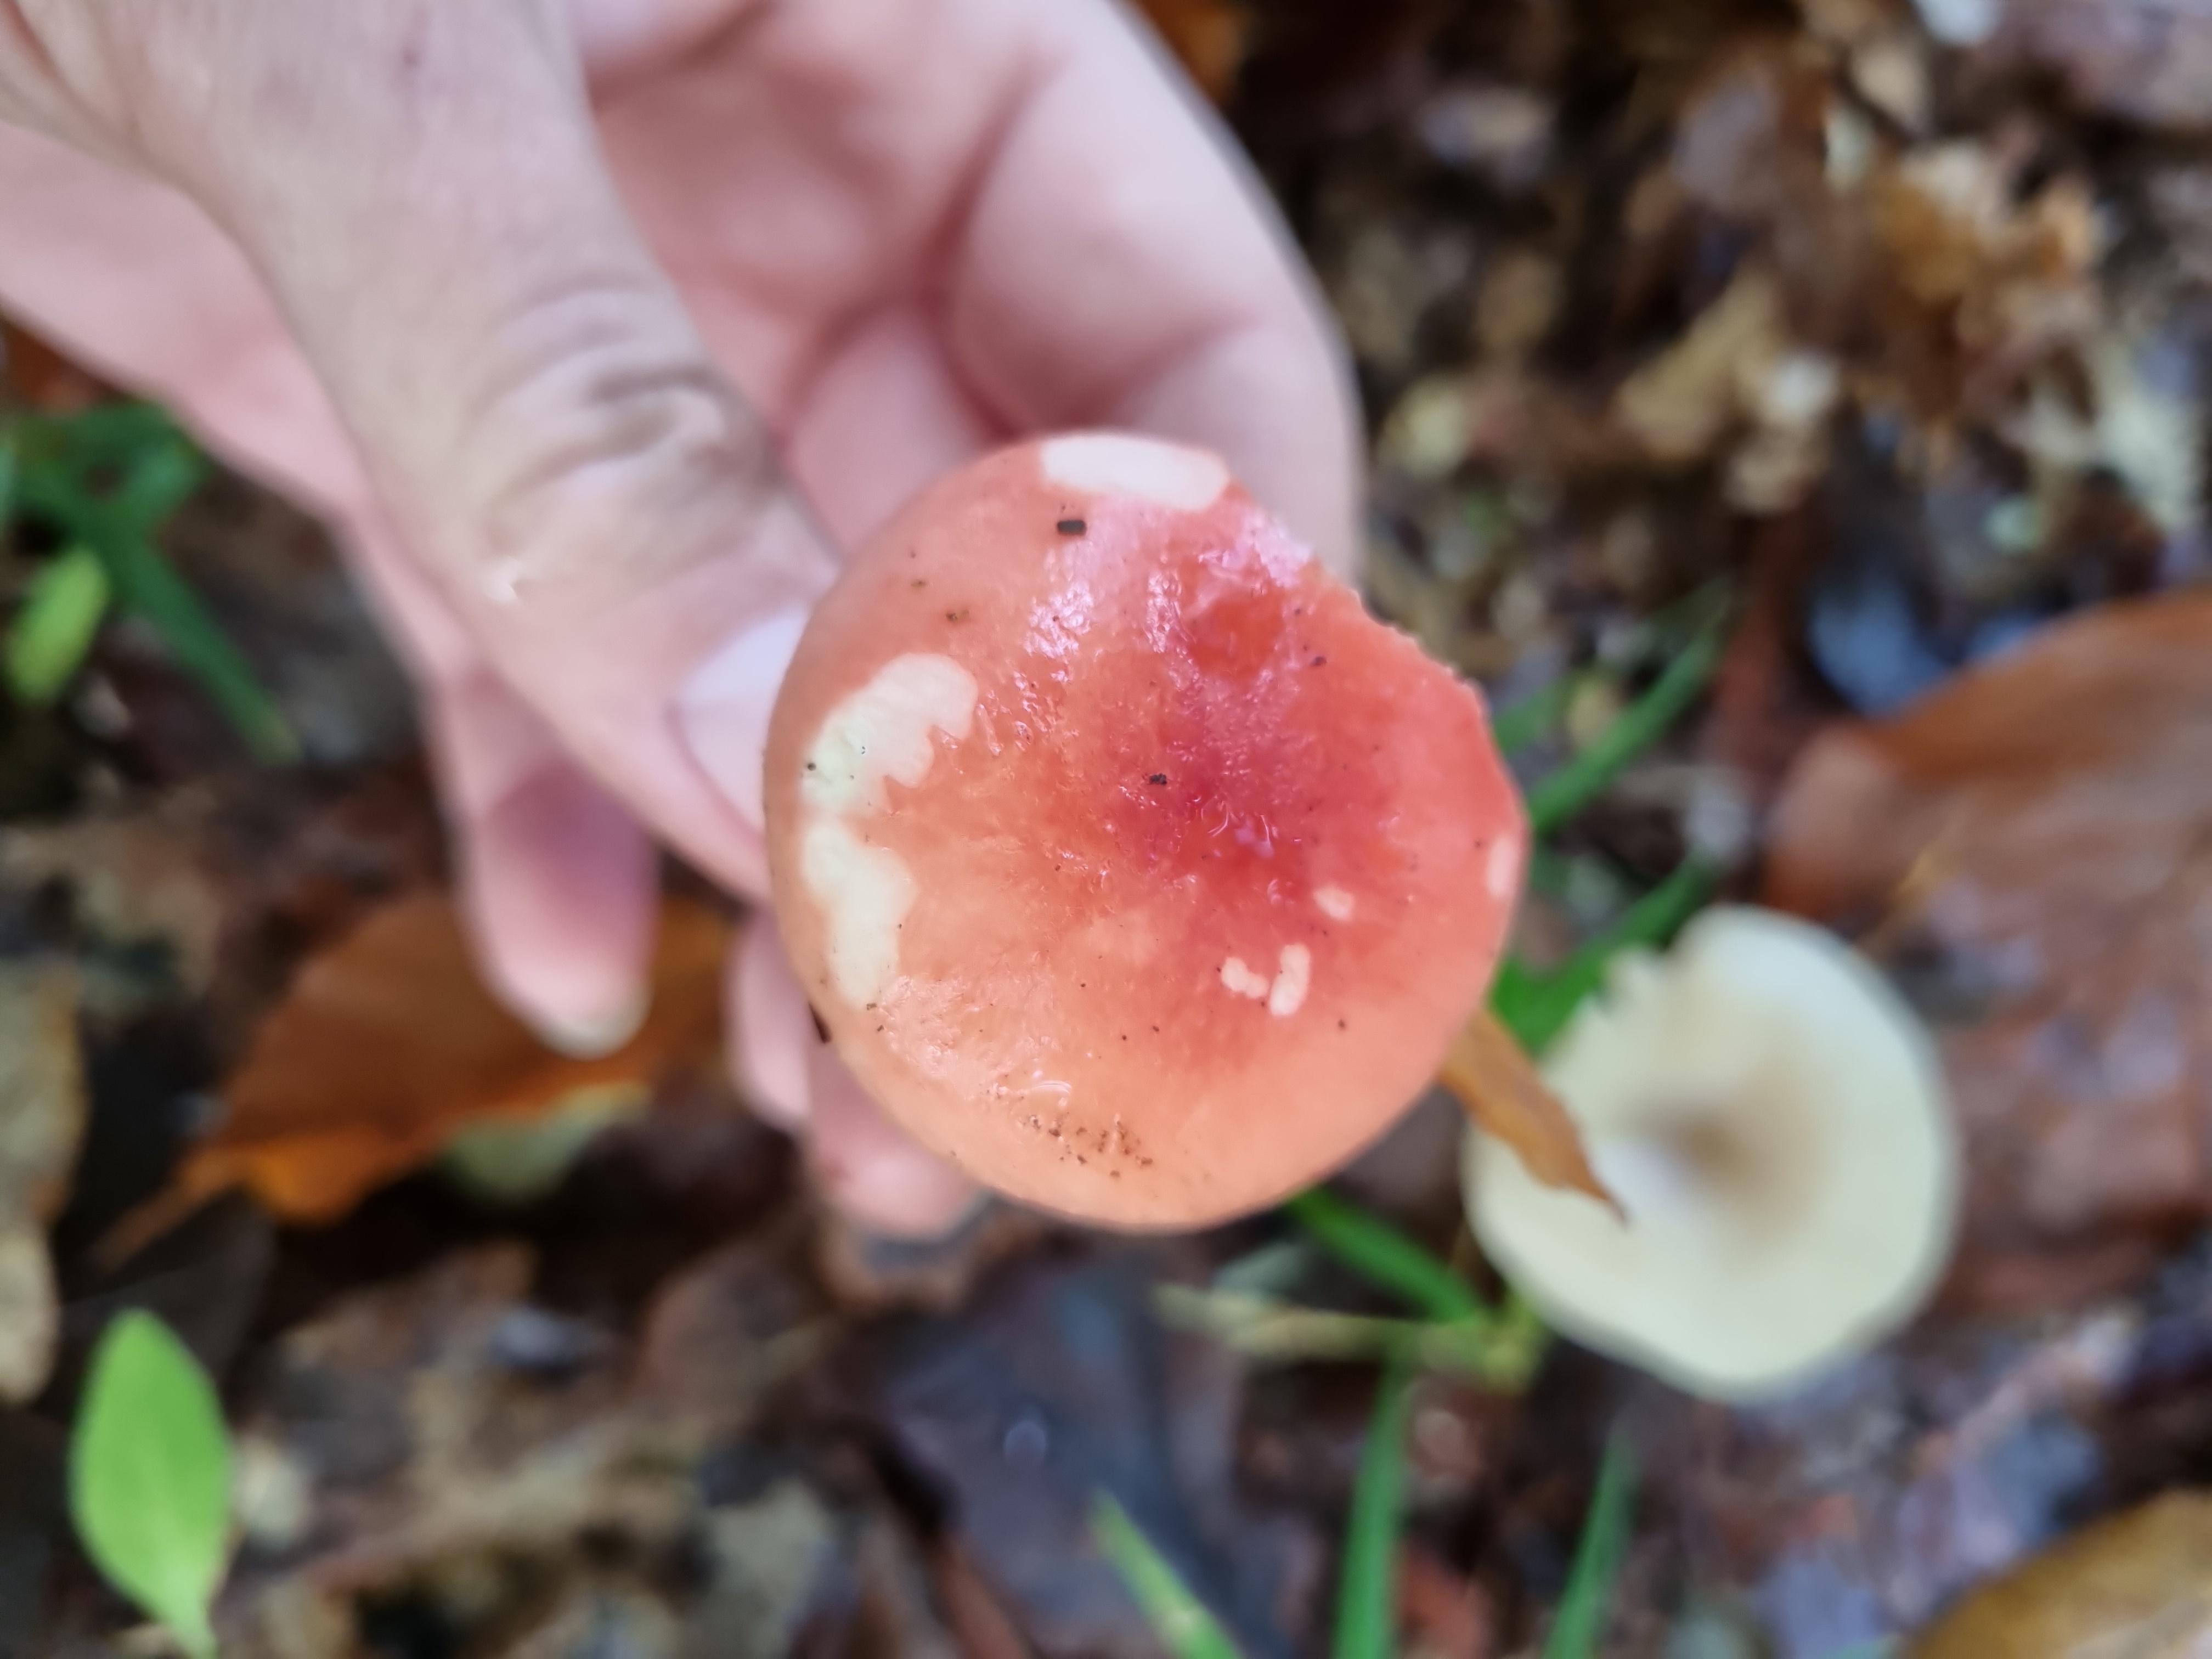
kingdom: Fungi
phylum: Basidiomycota
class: Agaricomycetes
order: Russulales
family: Russulaceae
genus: Russula
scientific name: Russula
